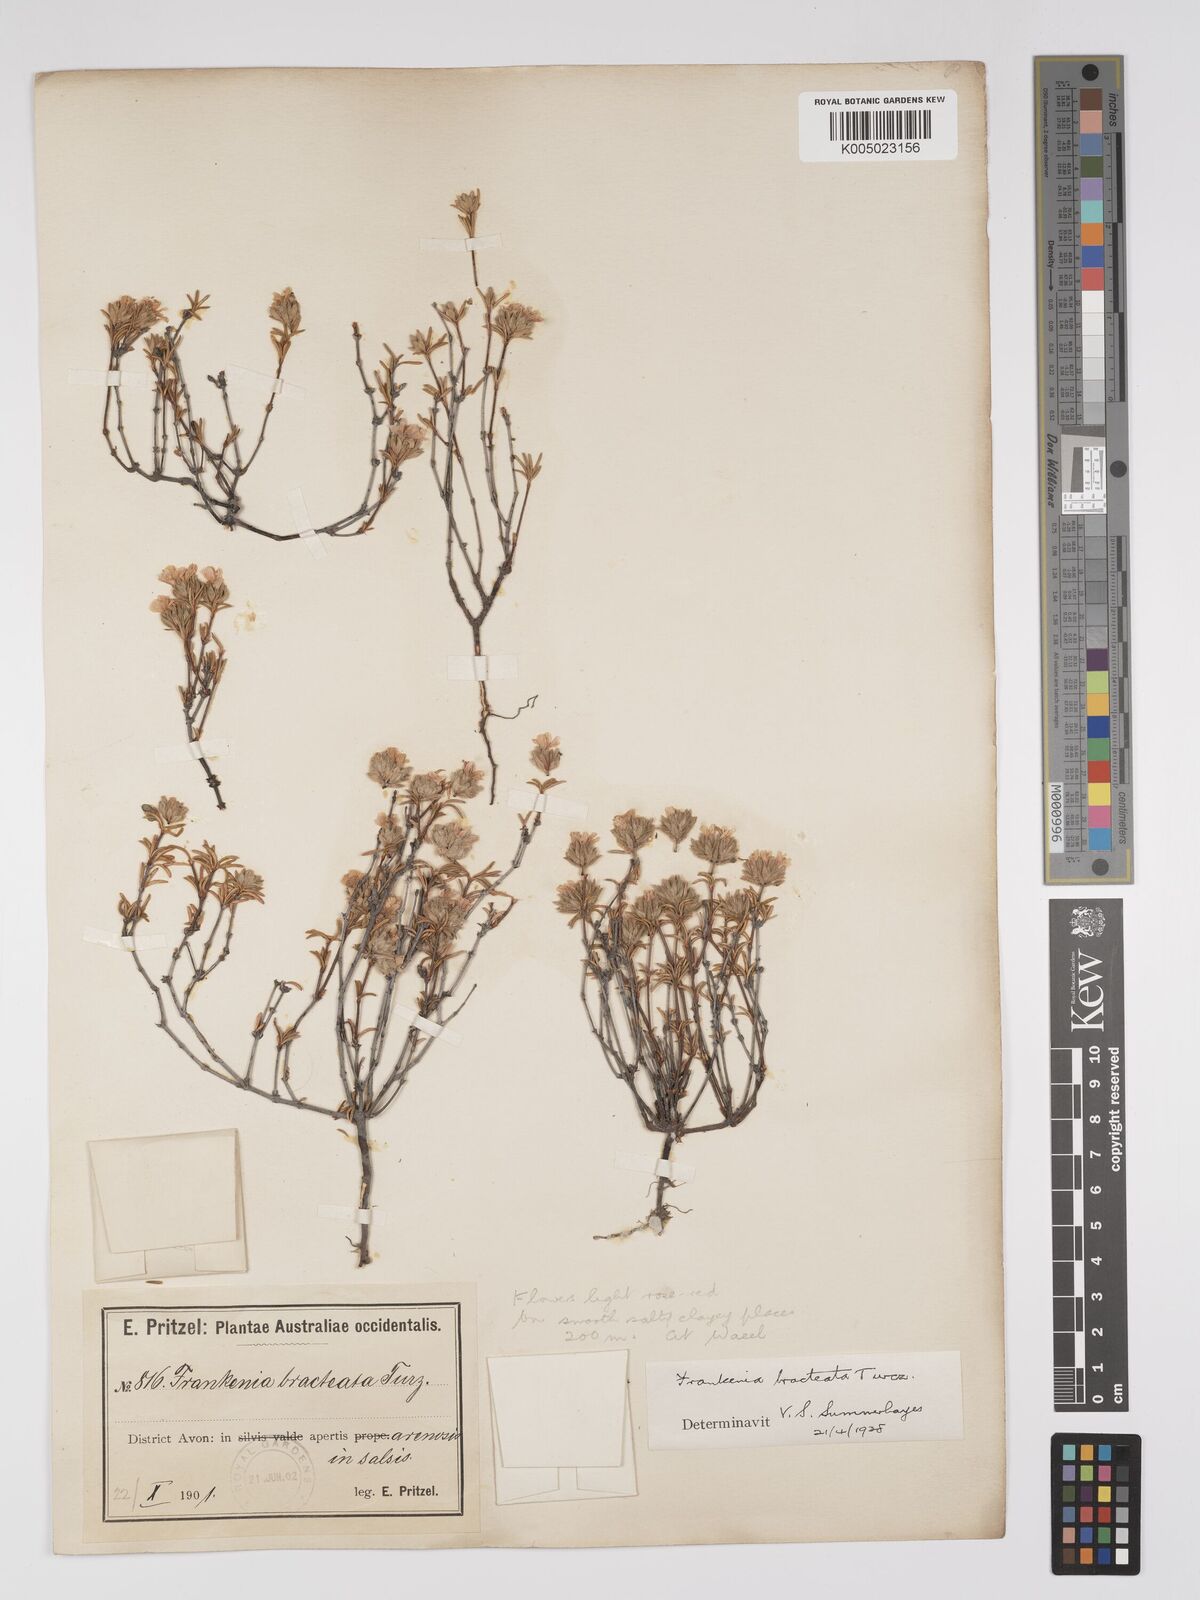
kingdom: Plantae
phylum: Tracheophyta
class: Magnoliopsida
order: Caryophyllales
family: Frankeniaceae
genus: Frankenia
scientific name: Frankenia bracteata
